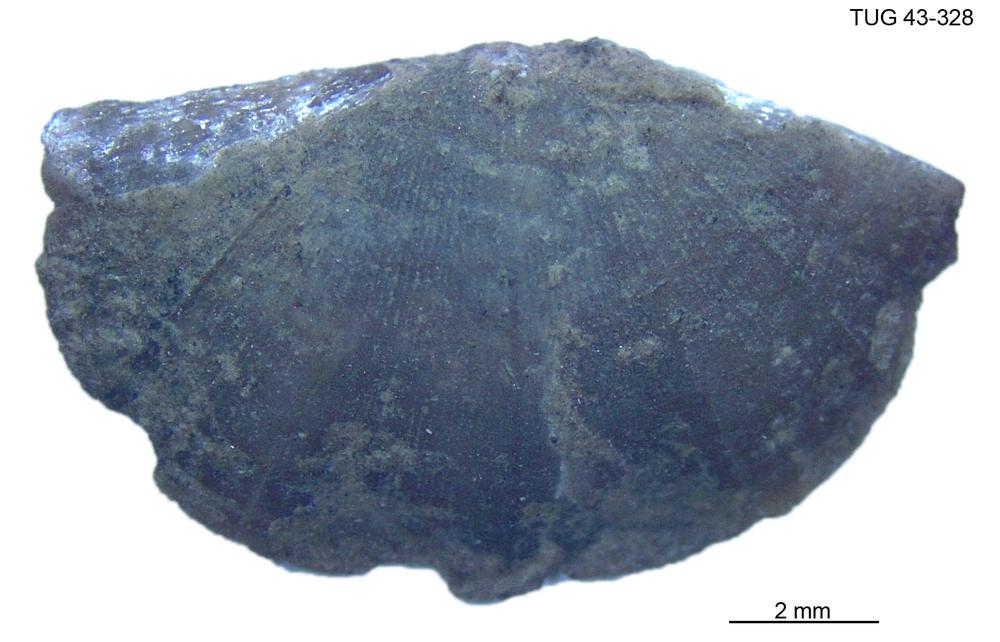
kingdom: Animalia
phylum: Brachiopoda
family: Sowerbyellidae
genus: Sowerbyella
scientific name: Sowerbyella
